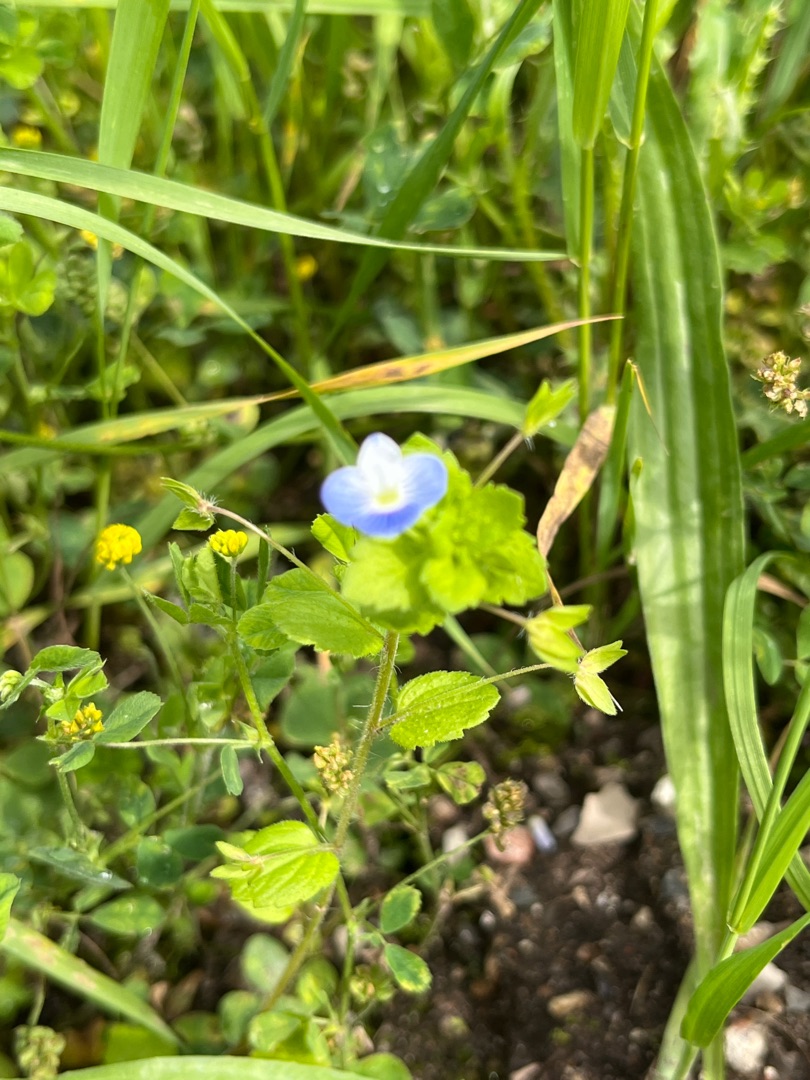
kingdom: Plantae
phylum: Tracheophyta
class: Magnoliopsida
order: Lamiales
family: Plantaginaceae
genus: Veronica
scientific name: Veronica persica
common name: Storkronet ærenpris
